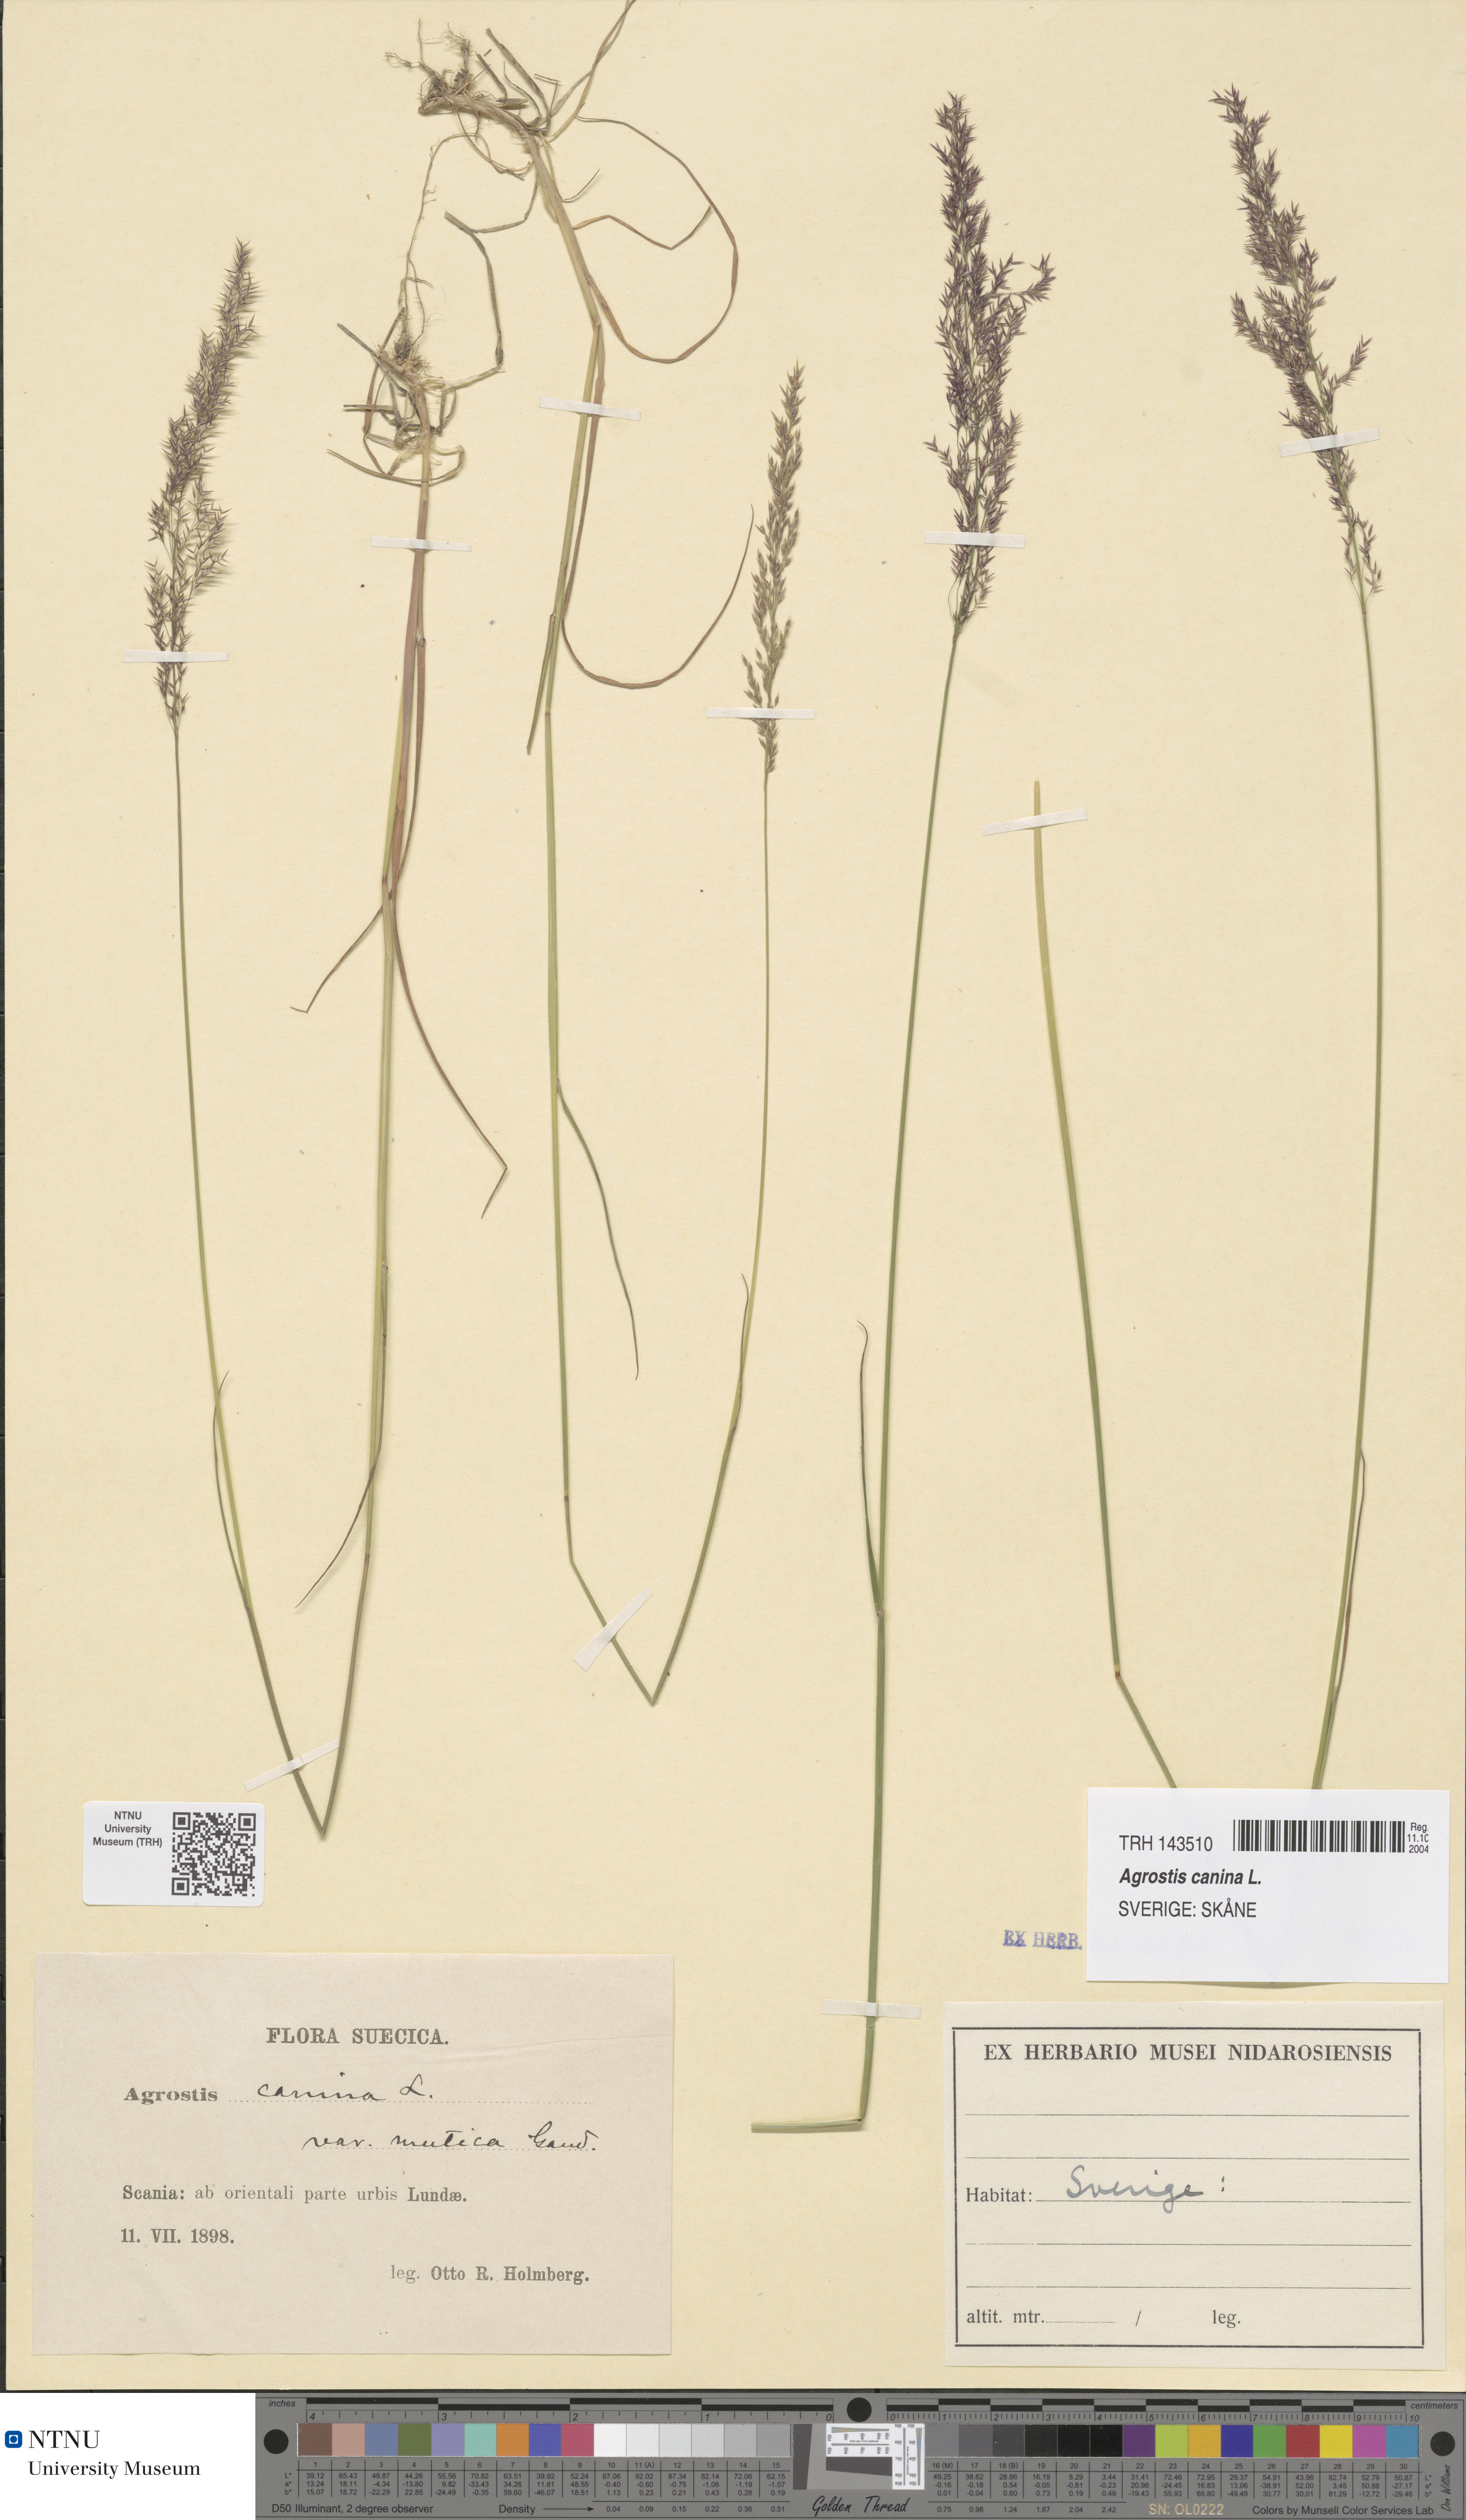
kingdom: Plantae
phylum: Tracheophyta
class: Liliopsida
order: Poales
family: Poaceae
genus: Agrostis
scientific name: Agrostis canina
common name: Velvet bent
